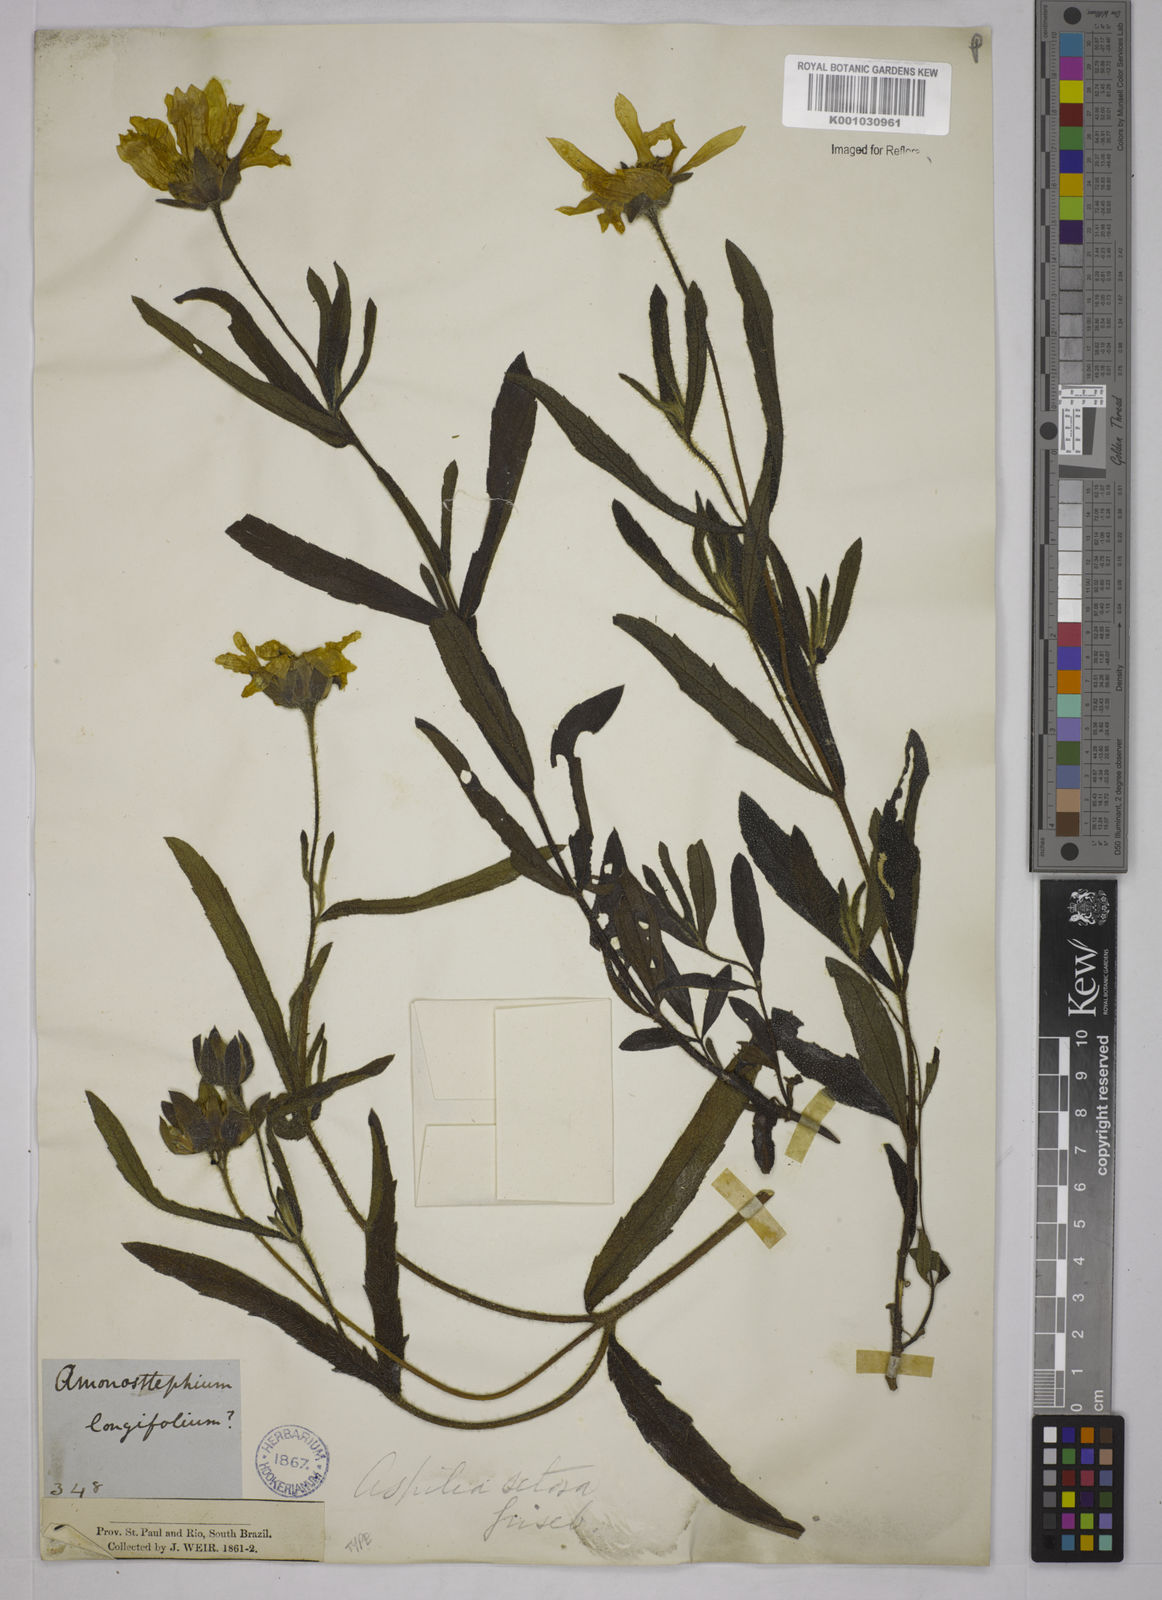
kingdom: Plantae
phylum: Tracheophyta
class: Magnoliopsida
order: Asterales
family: Asteraceae
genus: Aspilia
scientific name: Aspilia
